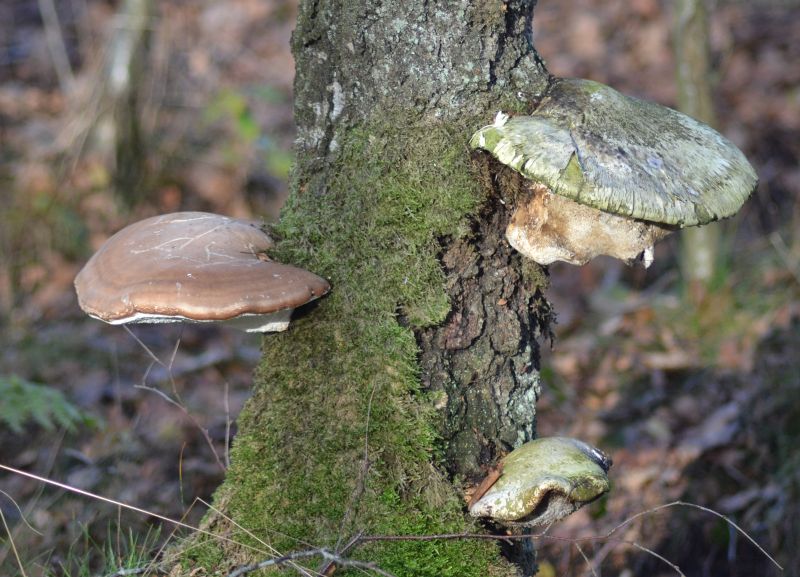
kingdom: Fungi
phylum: Basidiomycota
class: Agaricomycetes
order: Polyporales
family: Fomitopsidaceae
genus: Fomitopsis
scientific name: Fomitopsis betulina
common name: birkeporesvamp
